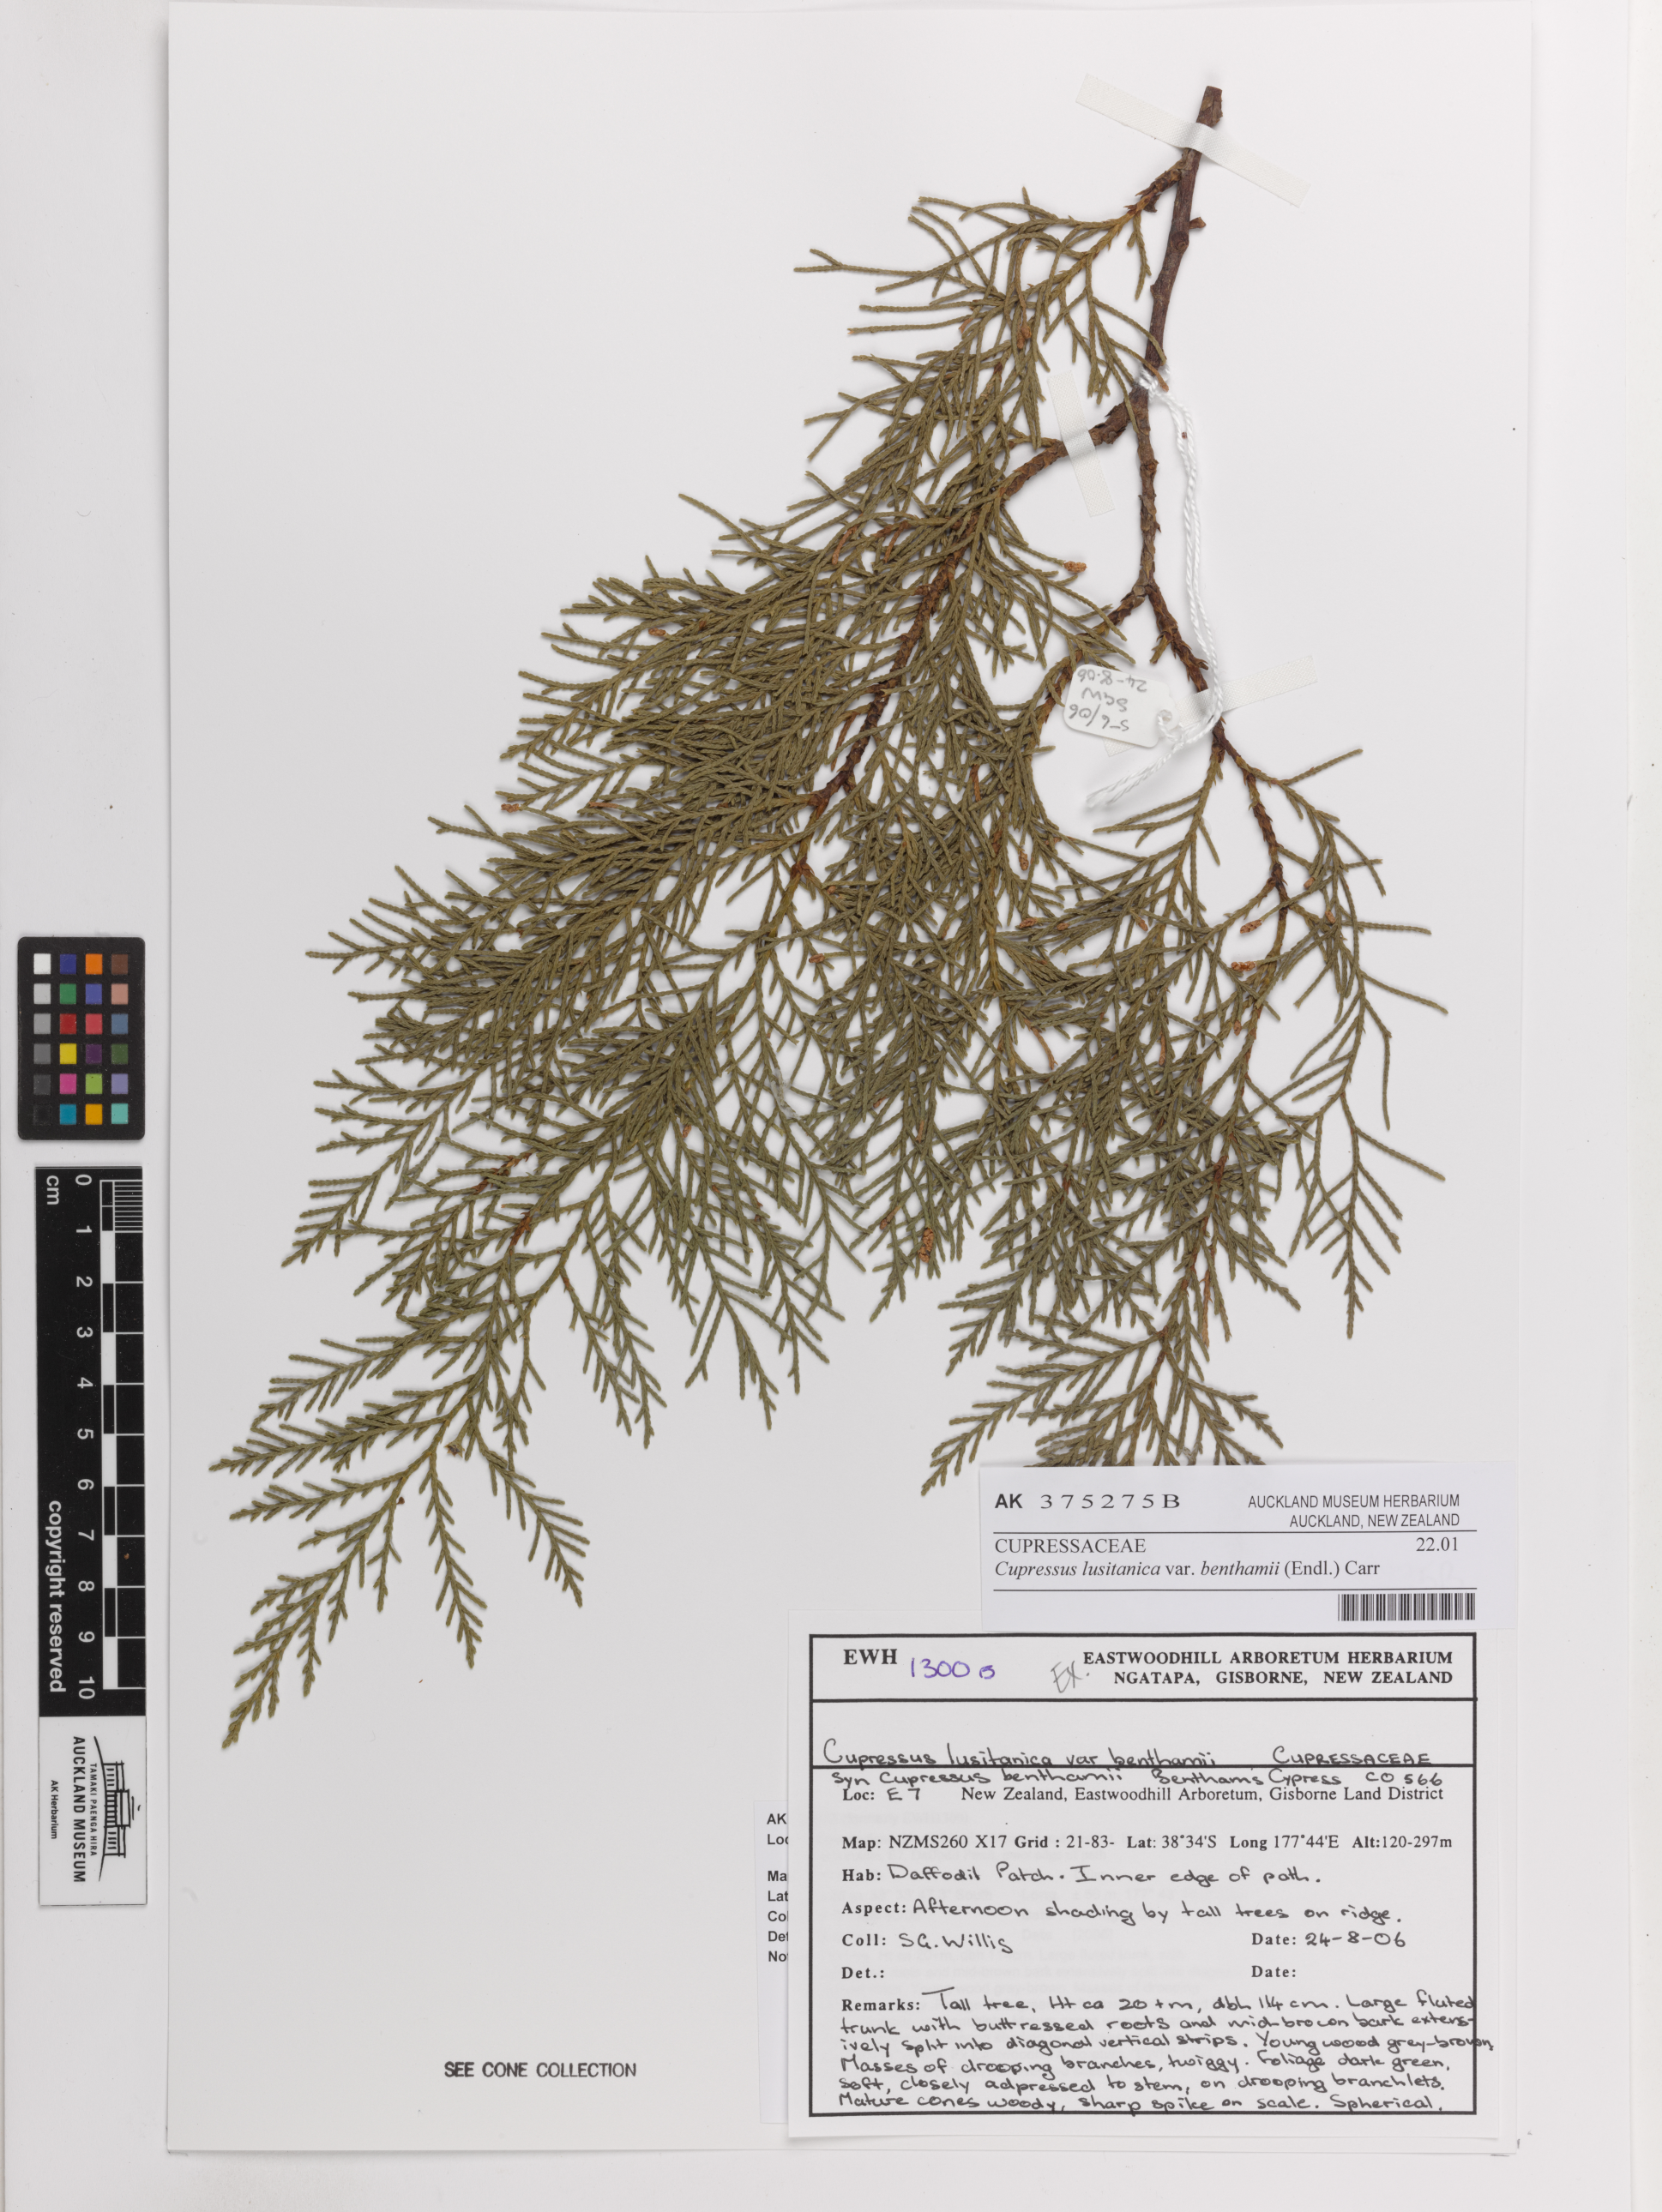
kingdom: Plantae
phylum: Tracheophyta
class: Pinopsida
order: Pinales
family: Cupressaceae
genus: Cupressus
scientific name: Cupressus lusitanica
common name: Mexican cypress
